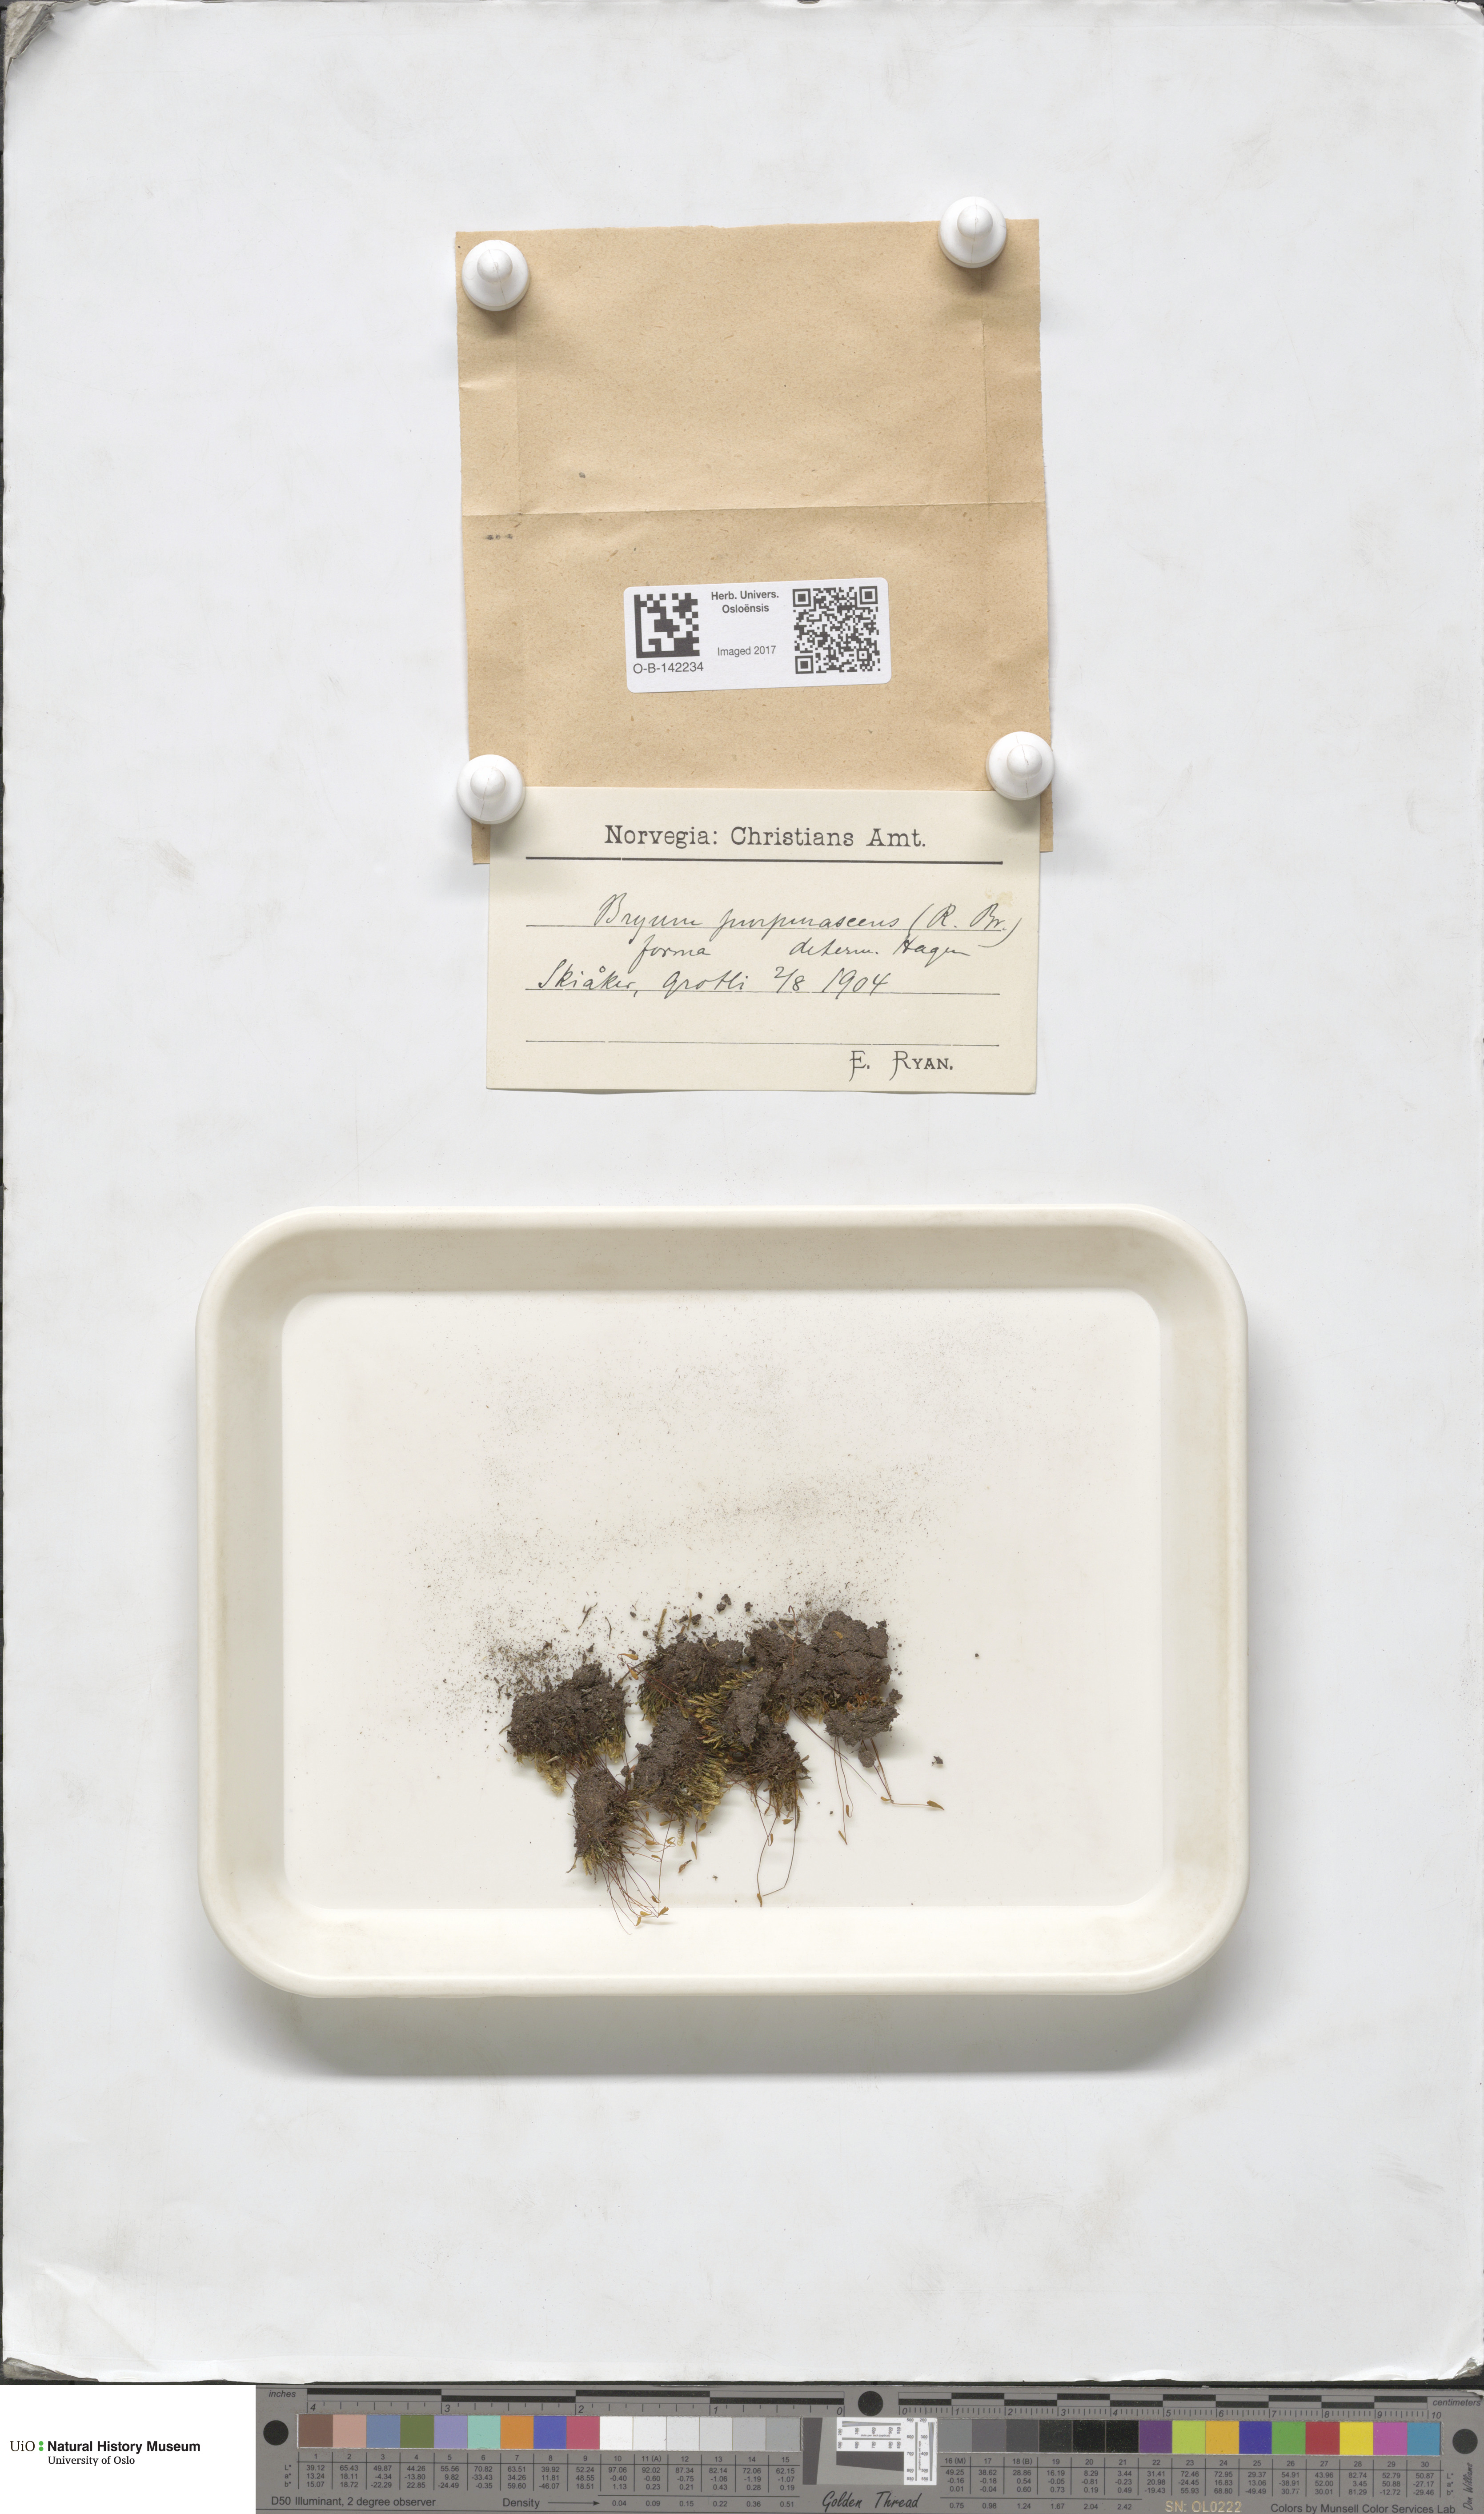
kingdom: Plantae
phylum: Bryophyta
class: Bryopsida
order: Bryales
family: Bryaceae
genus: Ptychostomum
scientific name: Ptychostomum arcticum
